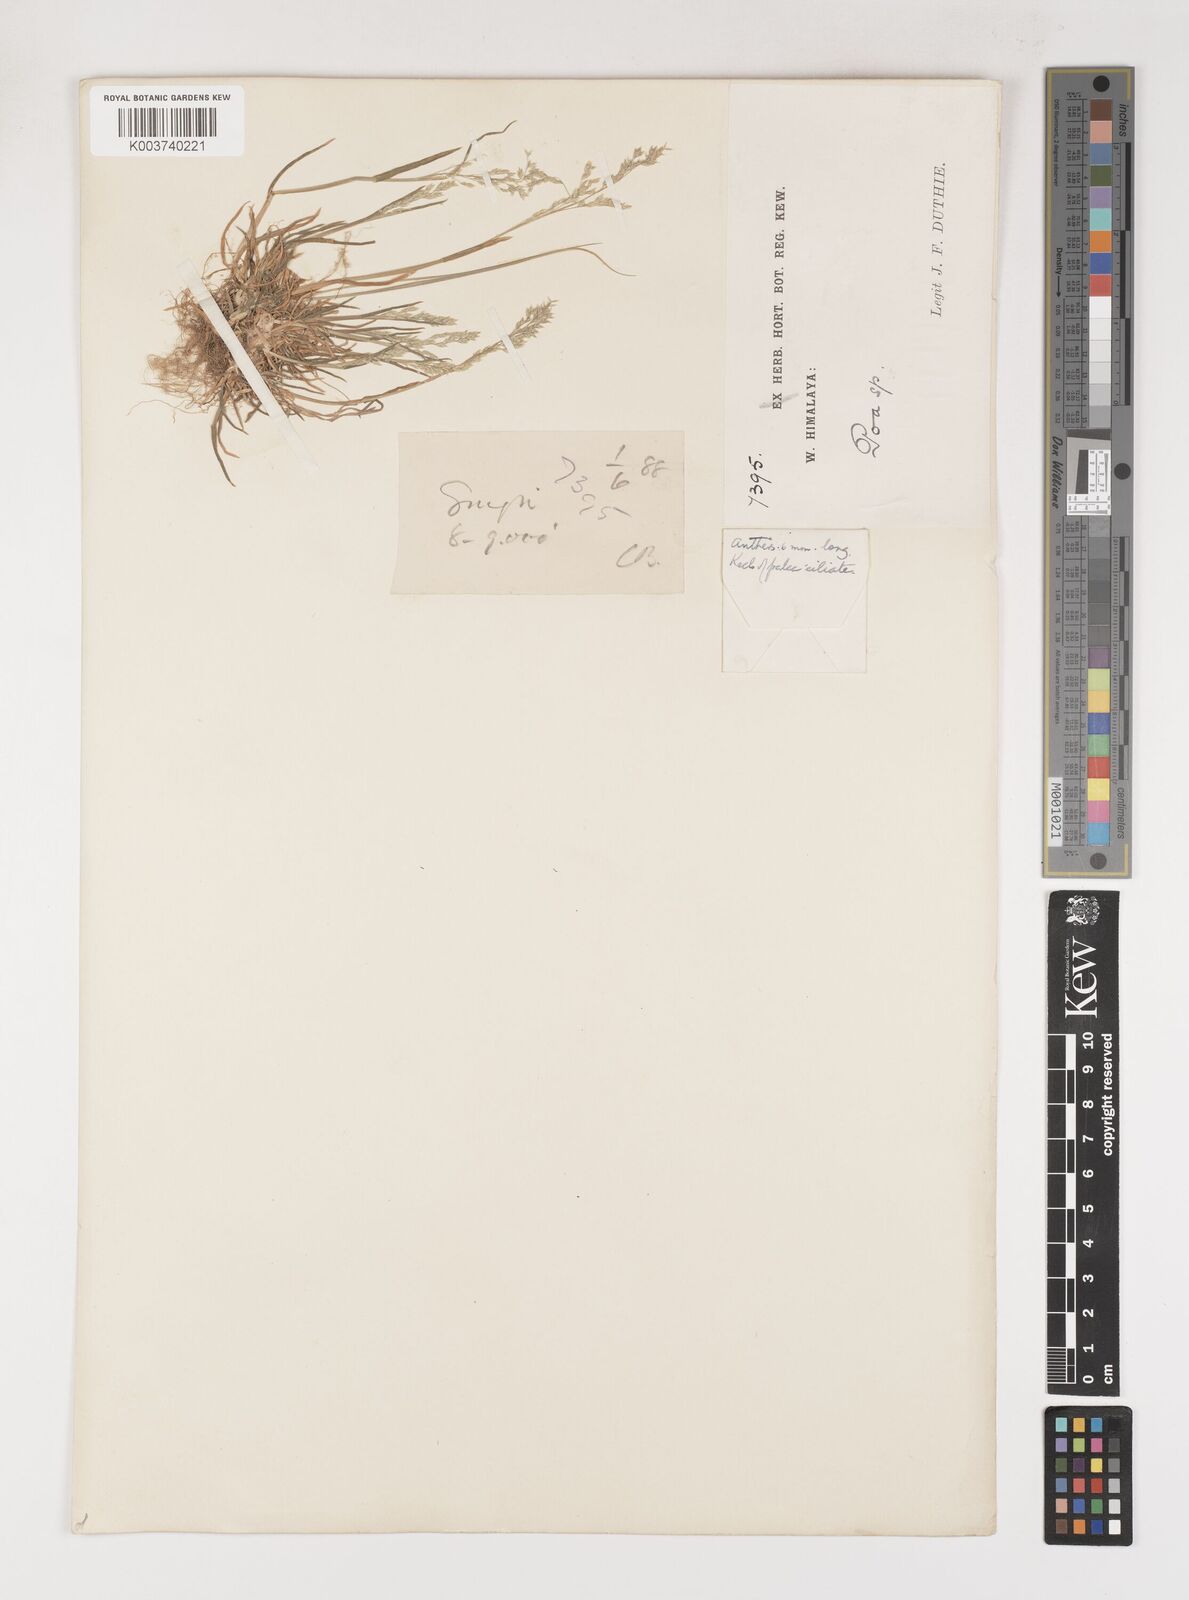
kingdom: Plantae
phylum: Tracheophyta
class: Liliopsida
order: Poales
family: Poaceae
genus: Poa
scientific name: Poa annua
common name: Annual bluegrass
